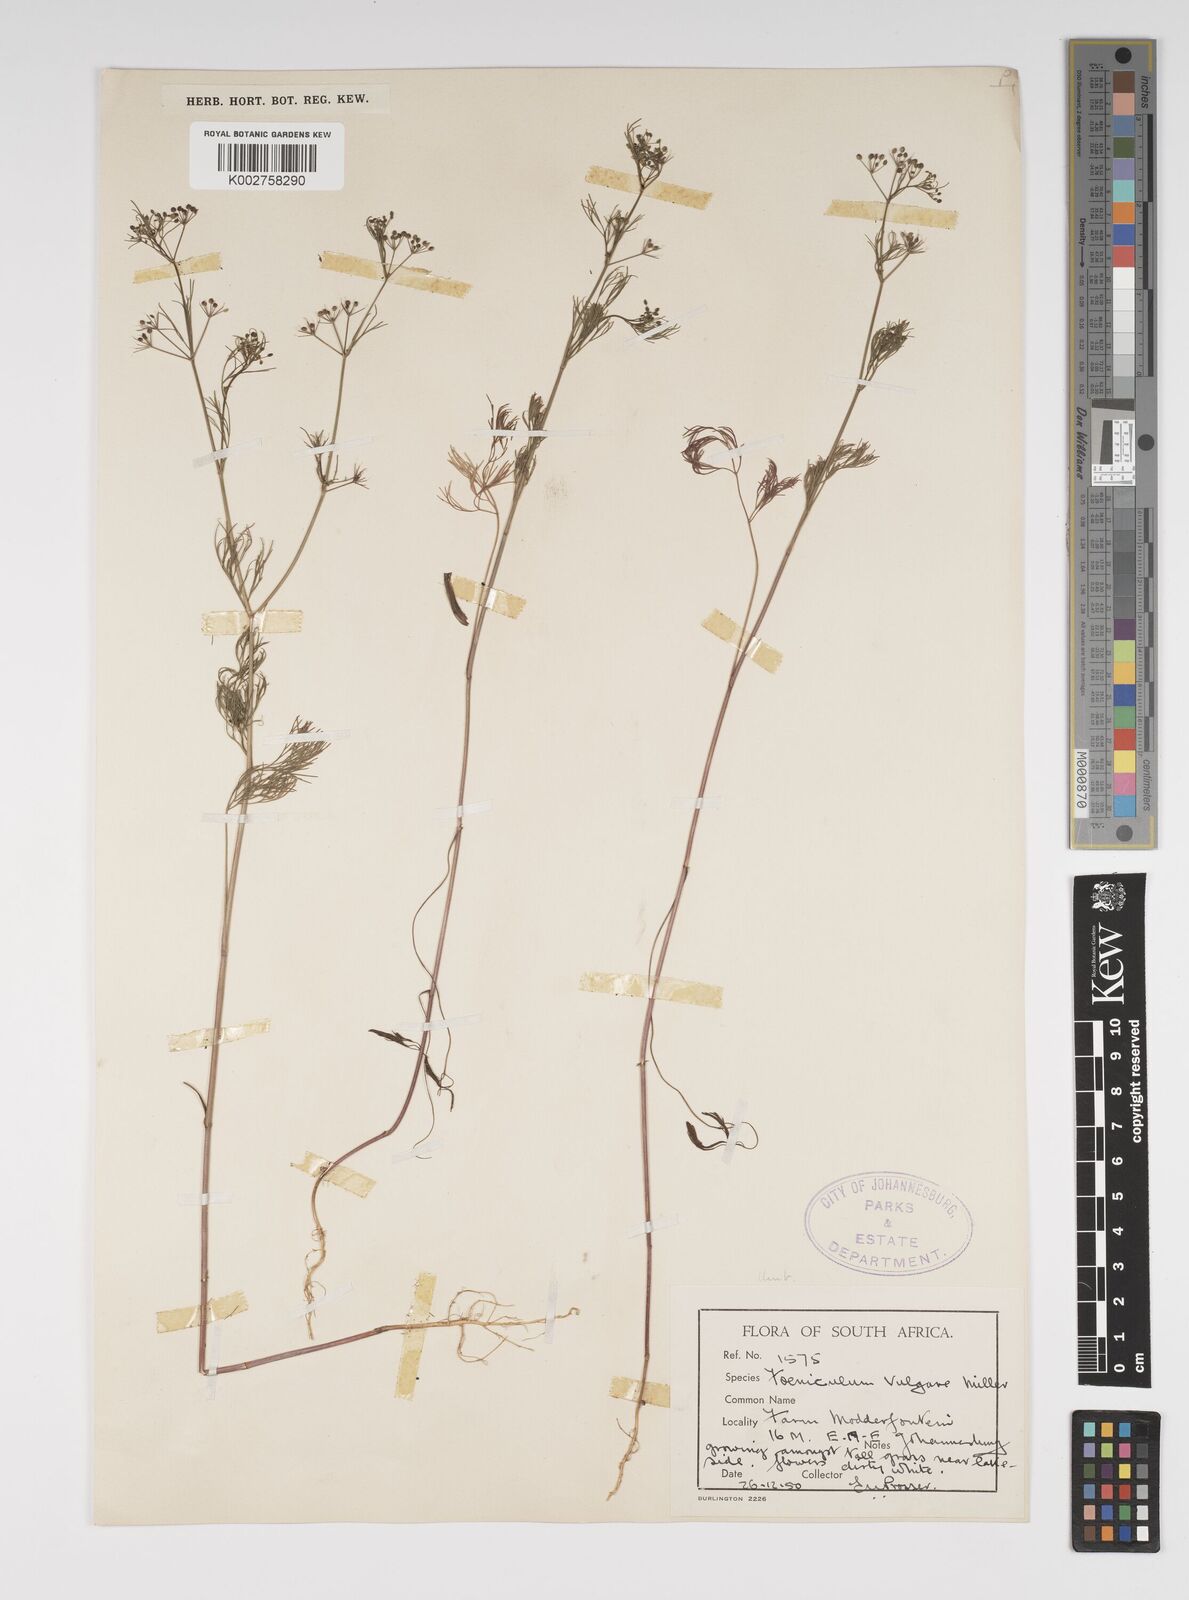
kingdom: Plantae
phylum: Tracheophyta
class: Magnoliopsida
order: Apiales
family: Apiaceae
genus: Foeniculum
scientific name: Foeniculum vulgare
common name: Fennel
